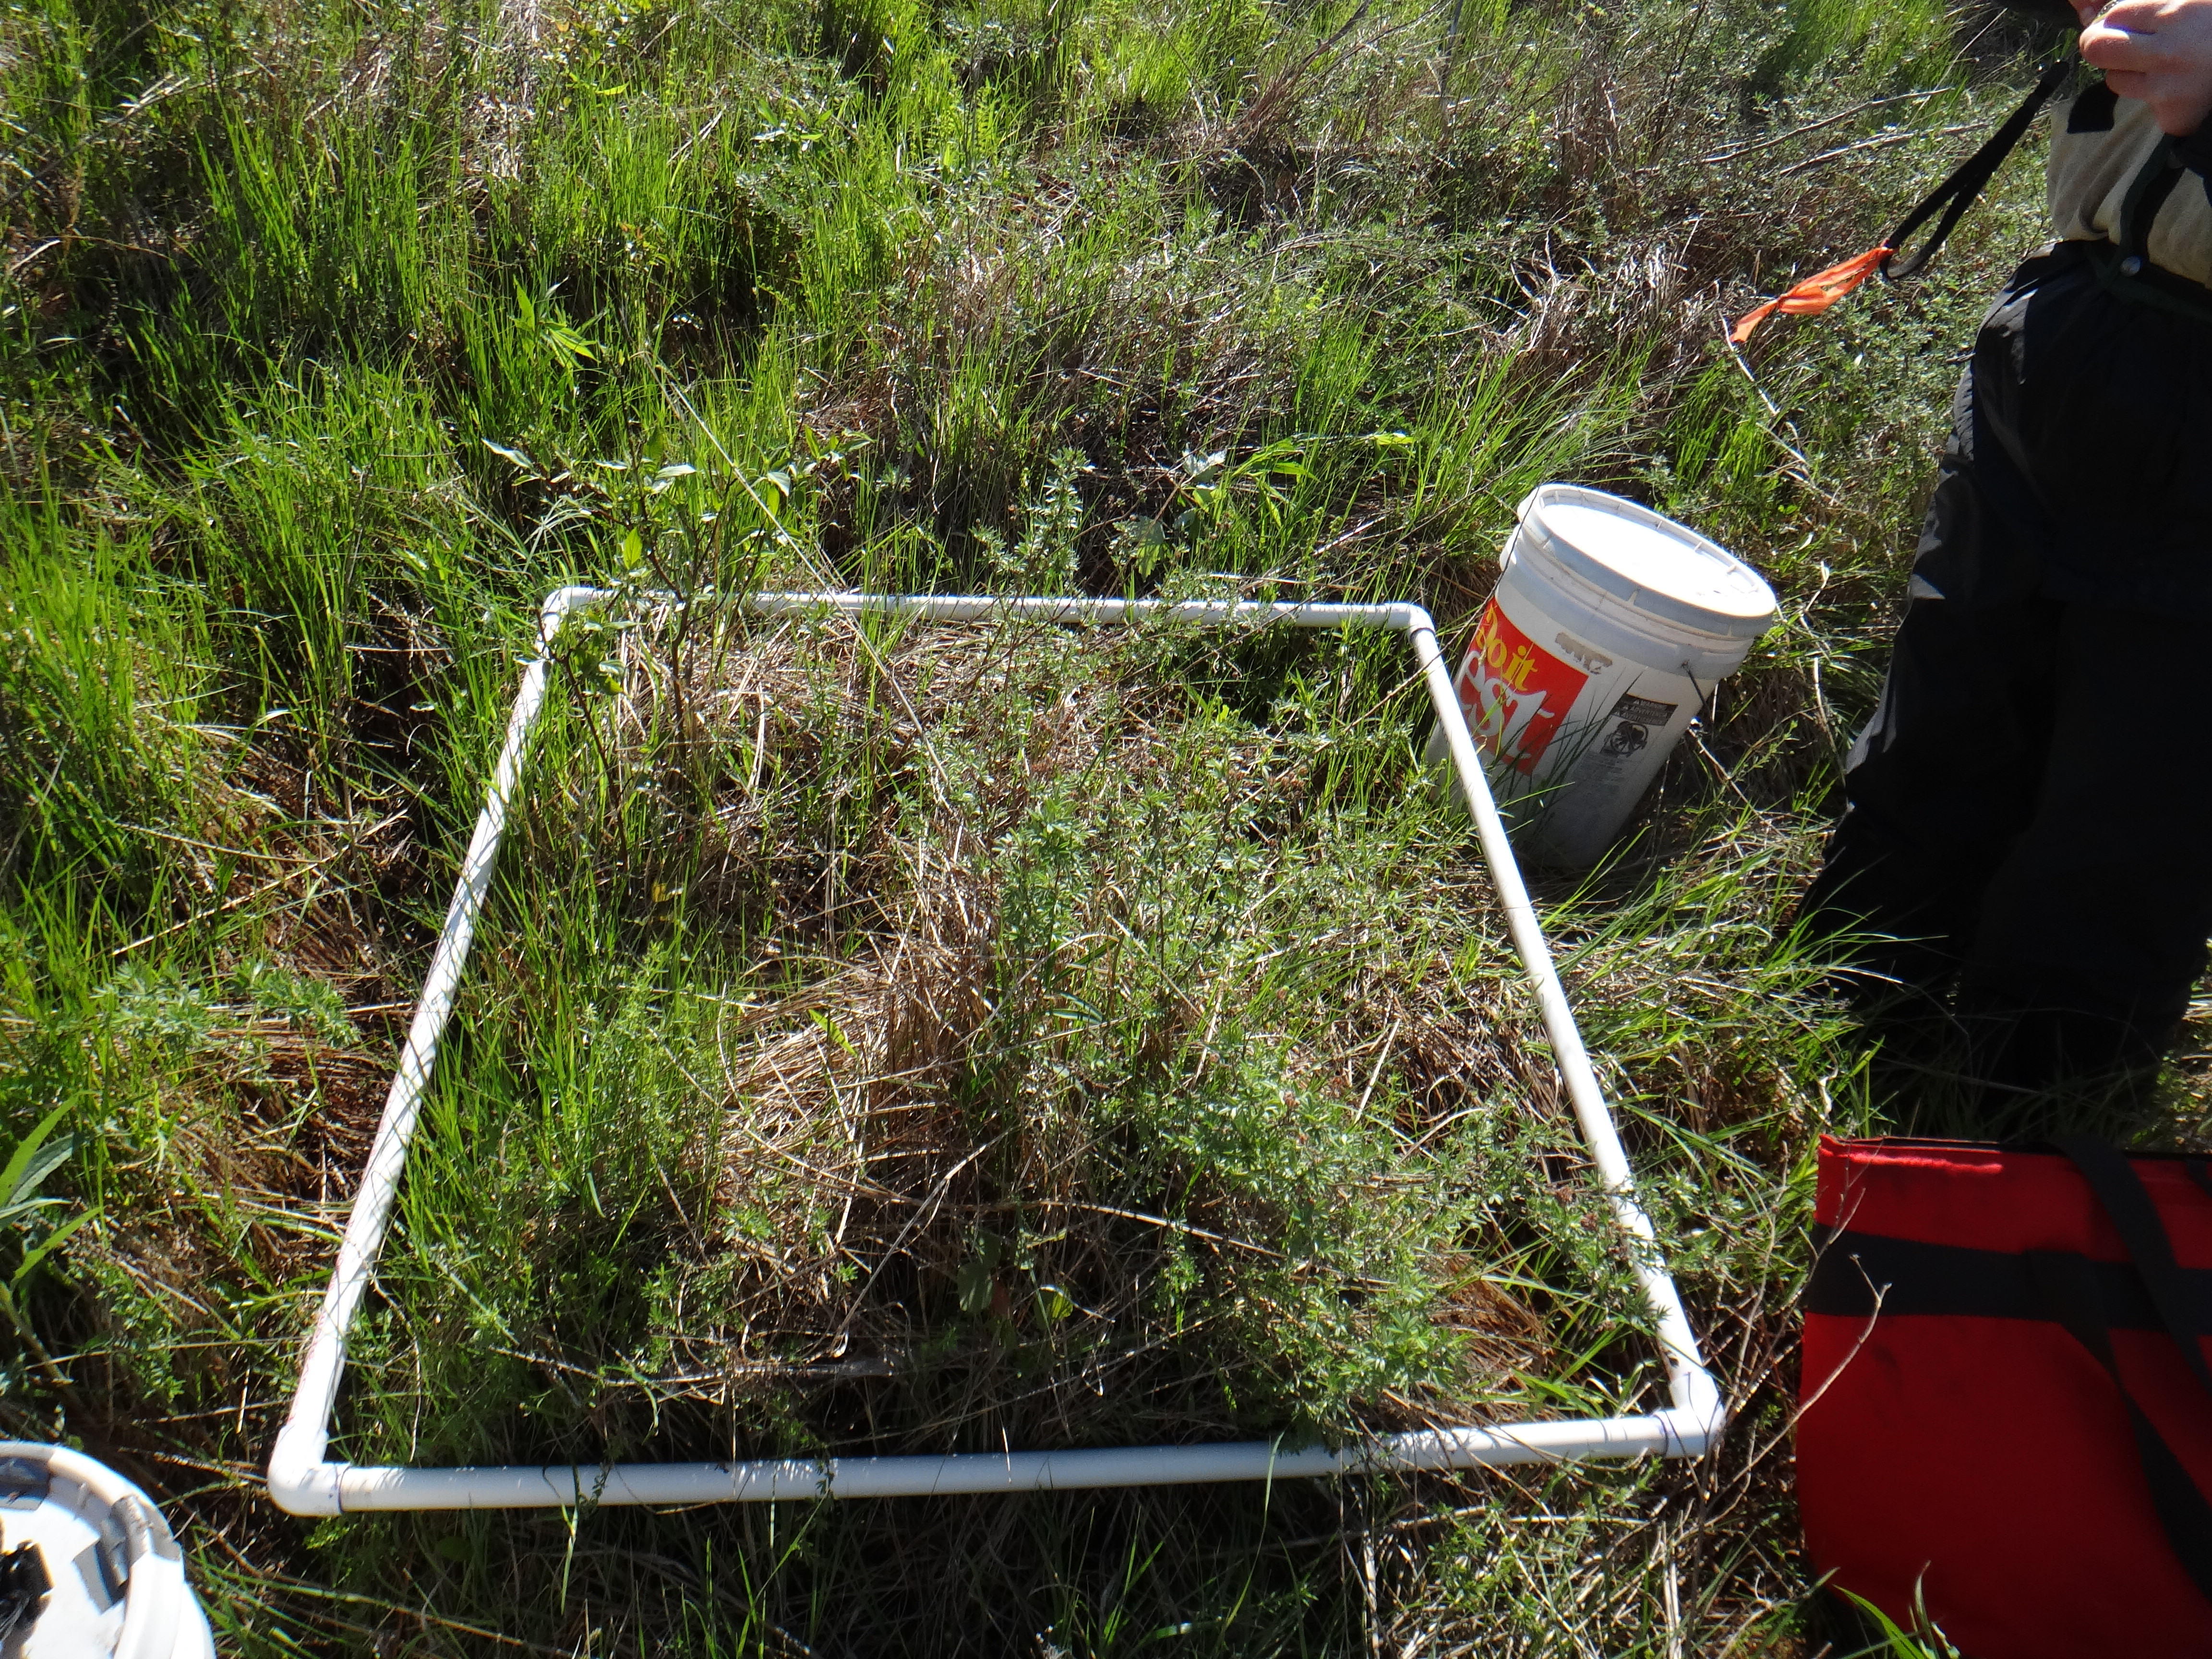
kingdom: Plantae
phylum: Tracheophyta
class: Magnoliopsida
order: Lamiales
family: Lamiaceae
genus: Lycopus
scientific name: Lycopus americanus
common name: American bugleweed
